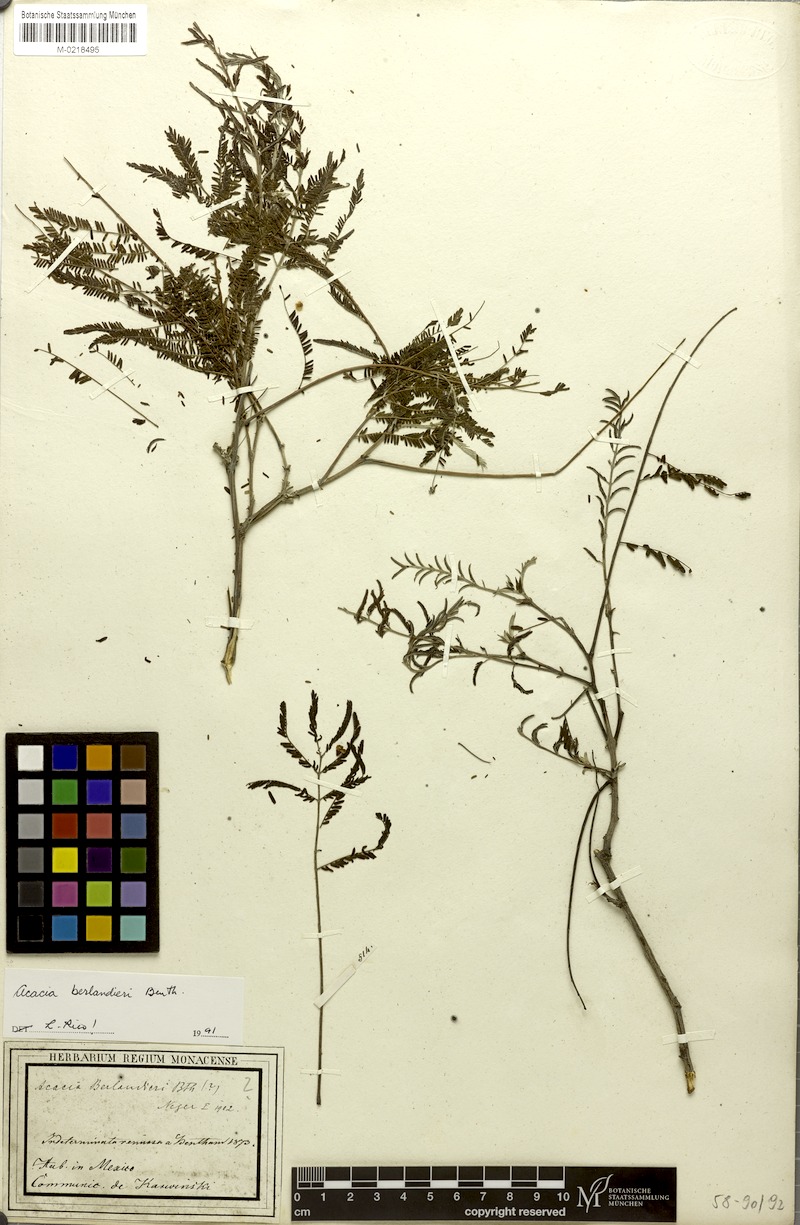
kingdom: Plantae
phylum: Tracheophyta
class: Magnoliopsida
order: Fabales
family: Fabaceae
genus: Senegalia
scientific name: Senegalia berlandieri
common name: Berlandier acacia
